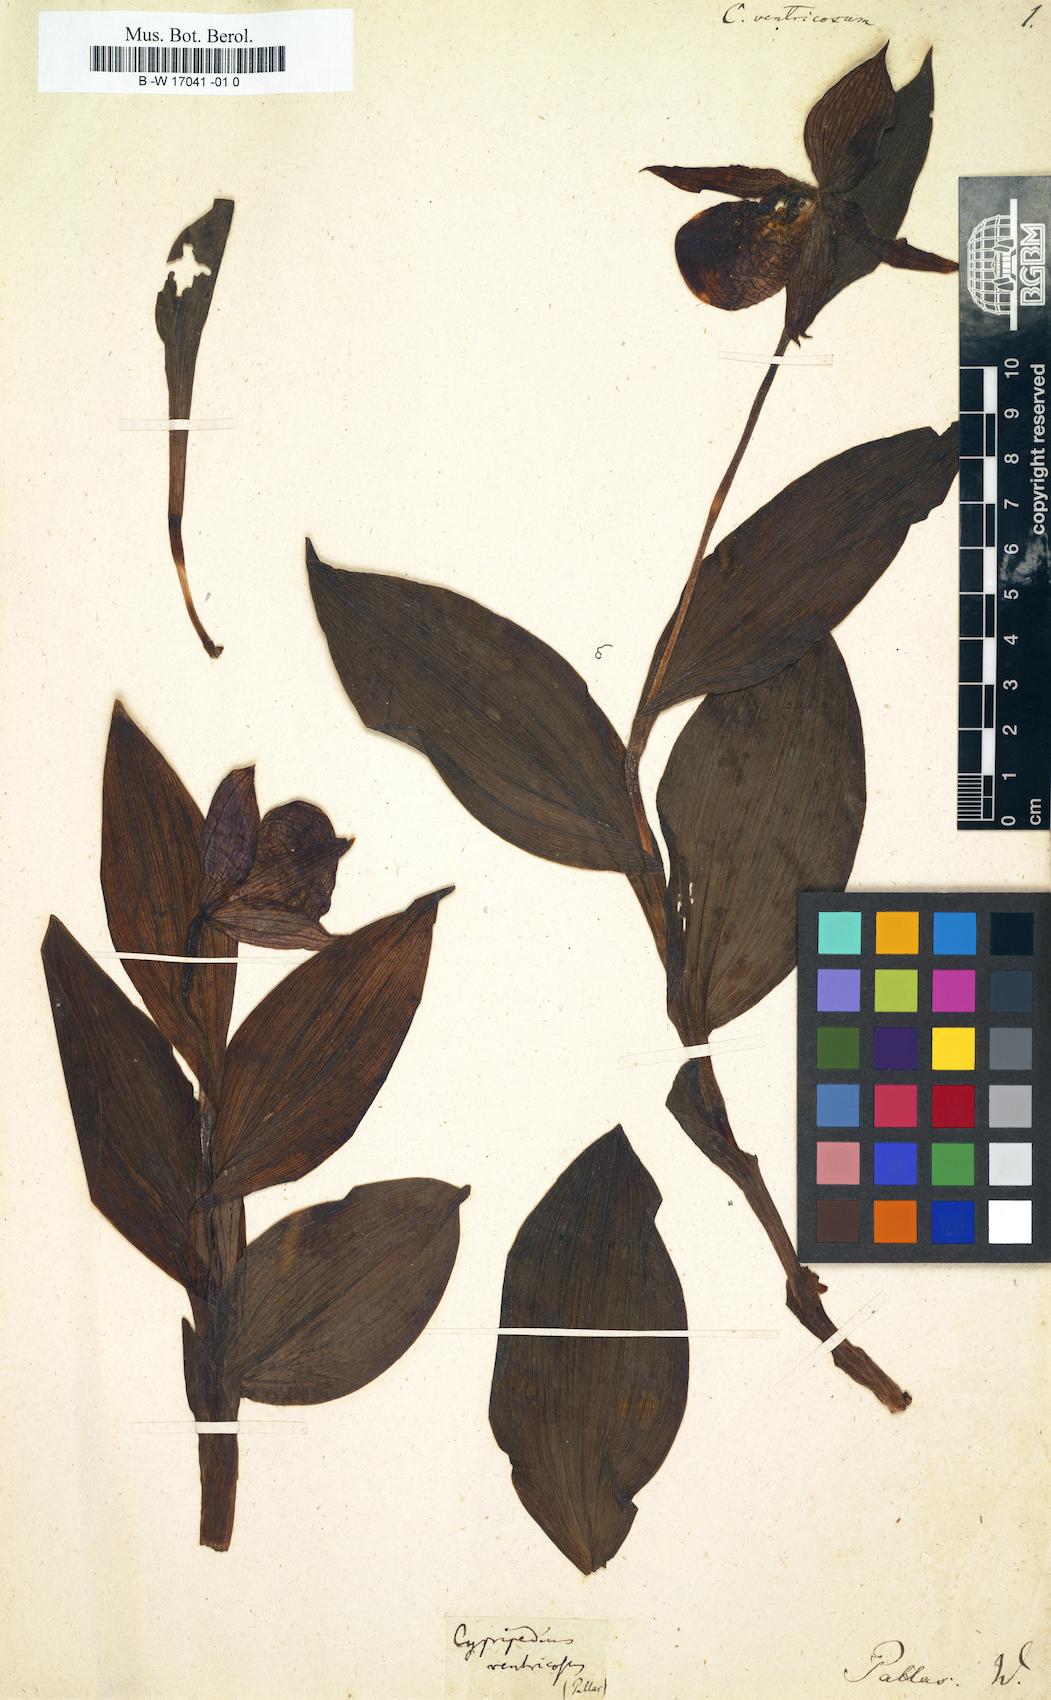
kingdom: Plantae
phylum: Tracheophyta
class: Liliopsida
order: Asparagales
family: Orchidaceae
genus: Cypripedium
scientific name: Cypripedium ventricosum
